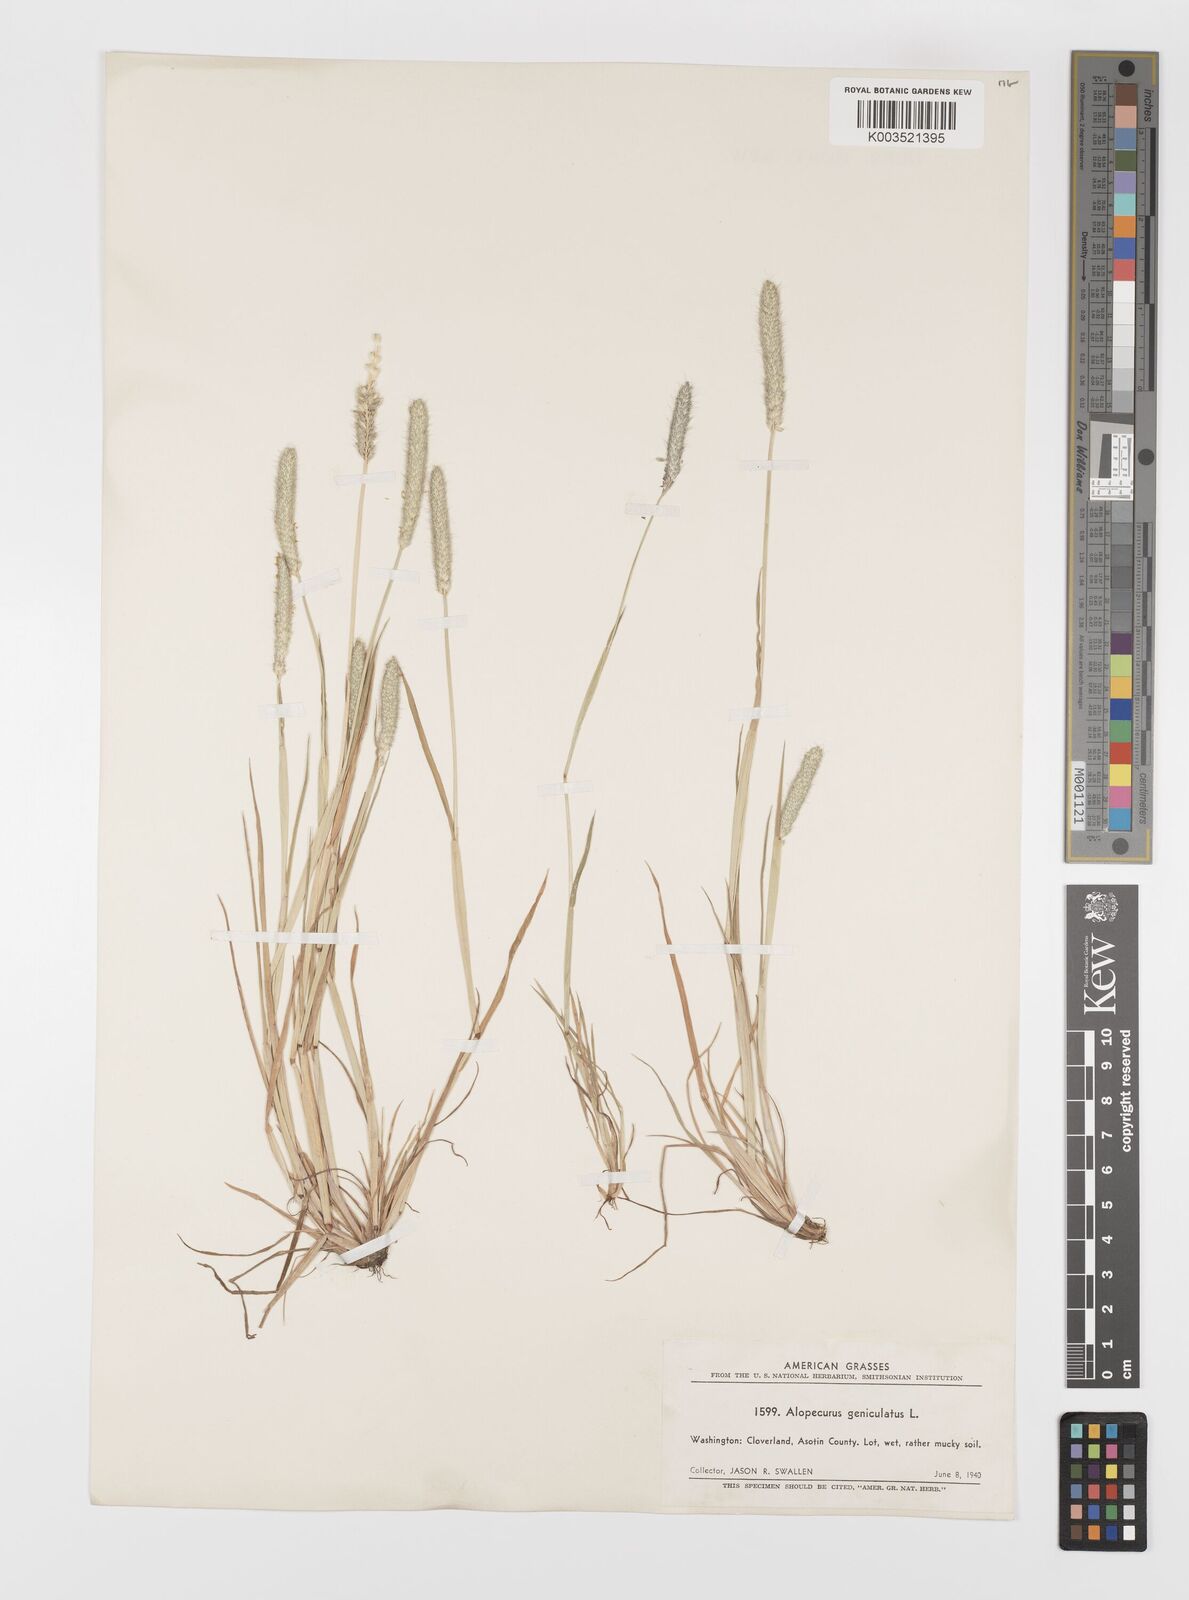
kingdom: Plantae
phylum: Tracheophyta
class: Liliopsida
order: Poales
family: Poaceae
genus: Alopecurus
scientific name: Alopecurus geniculatus
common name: Water foxtail
